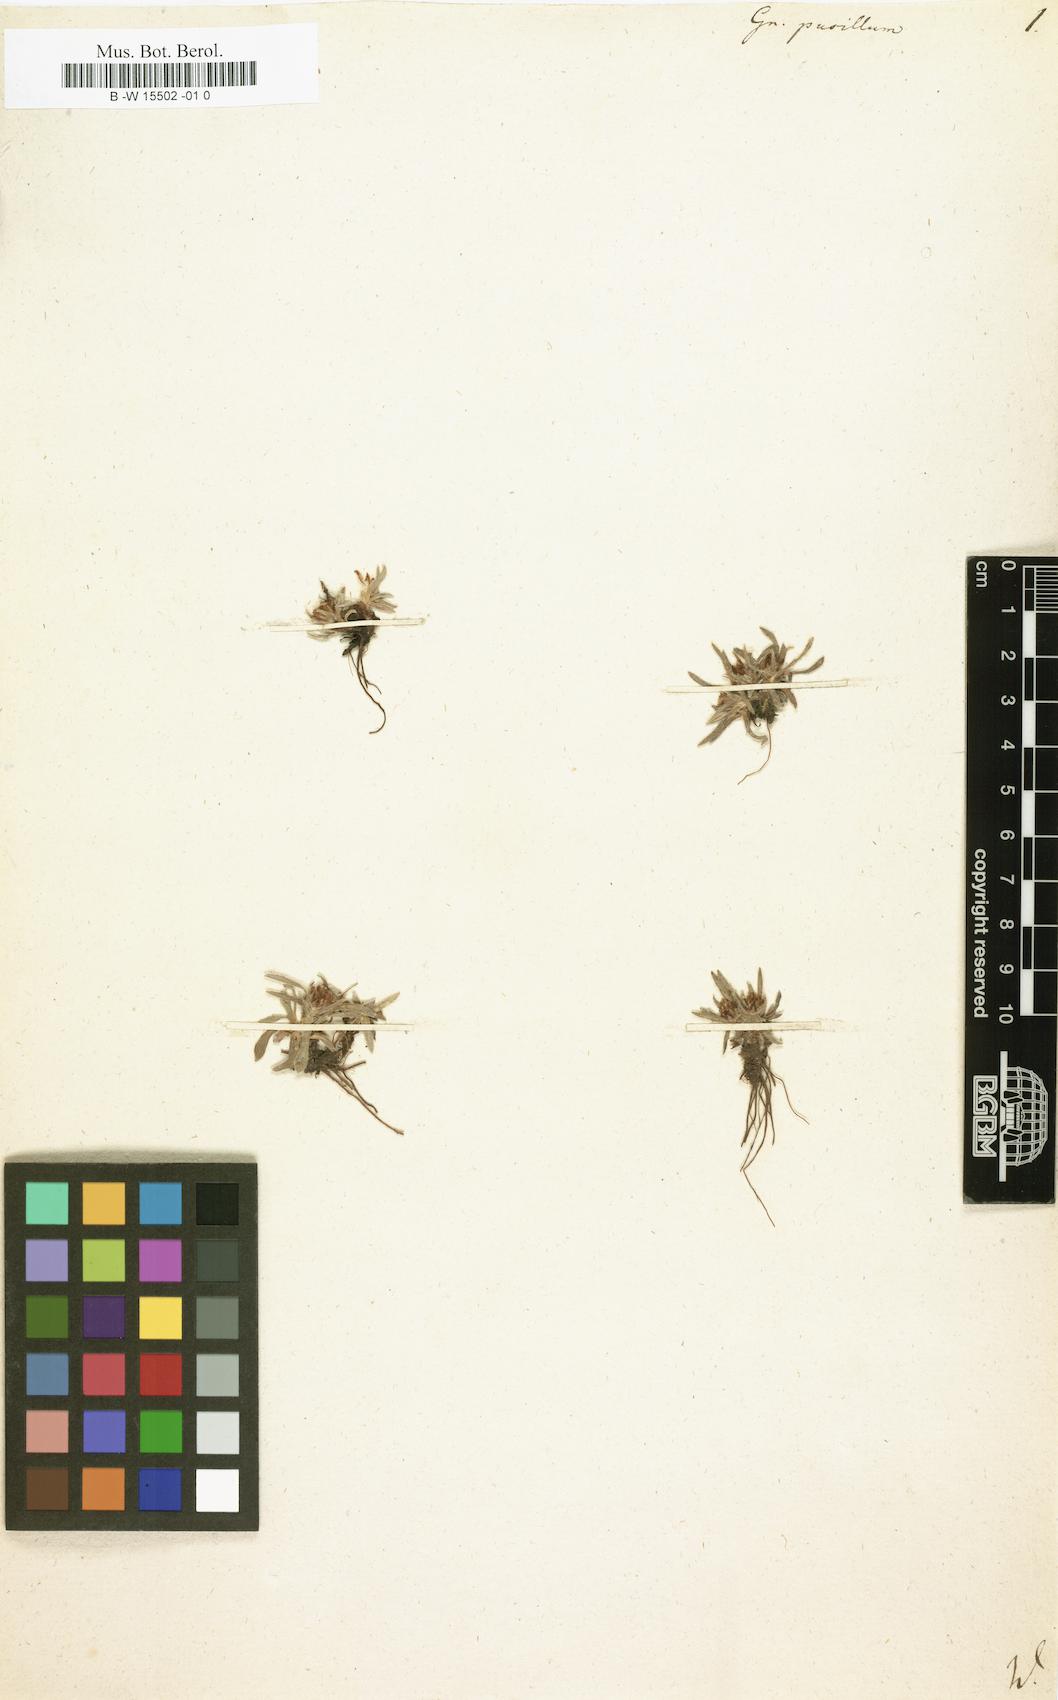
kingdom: Plantae
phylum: Tracheophyta
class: Magnoliopsida
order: Asterales
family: Asteraceae
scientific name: Asteraceae
